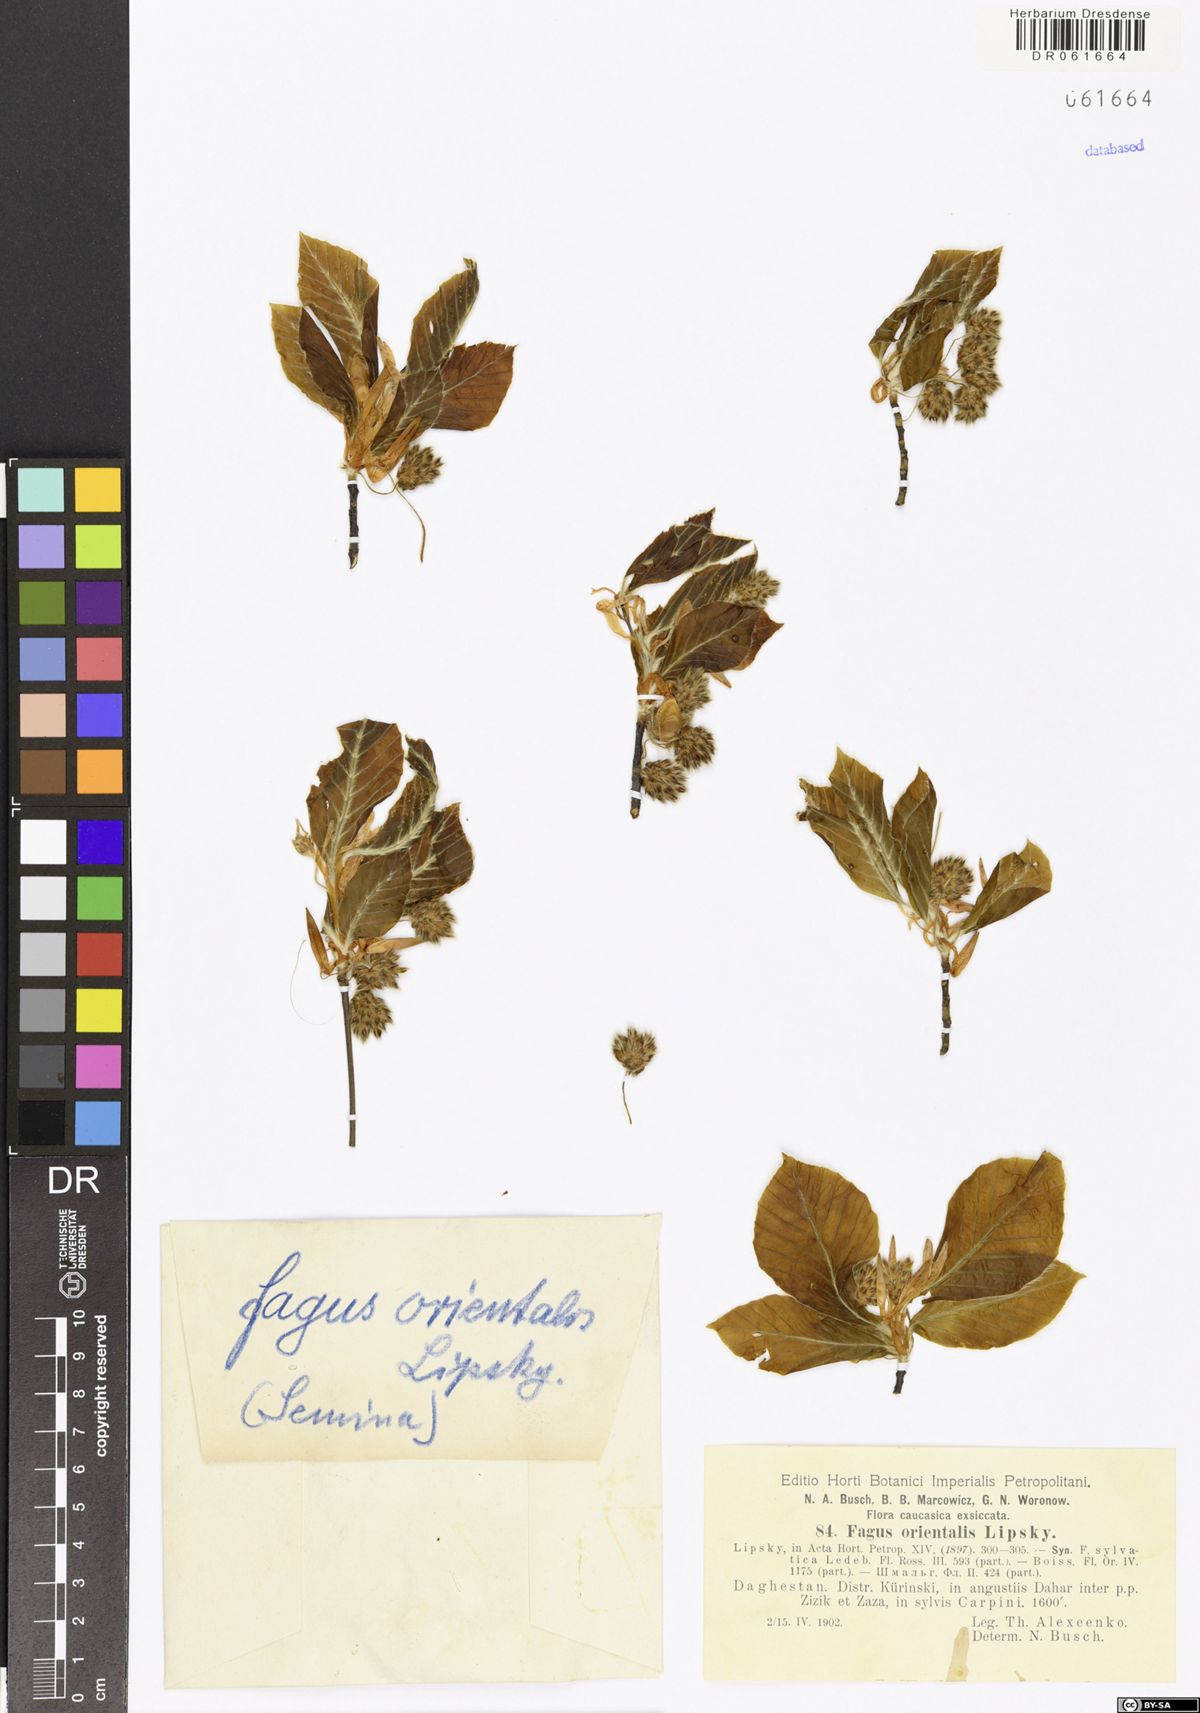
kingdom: Plantae
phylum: Tracheophyta
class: Magnoliopsida
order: Fagales
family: Fagaceae
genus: Fagus
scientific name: Fagus orientalis
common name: Oriental beech
